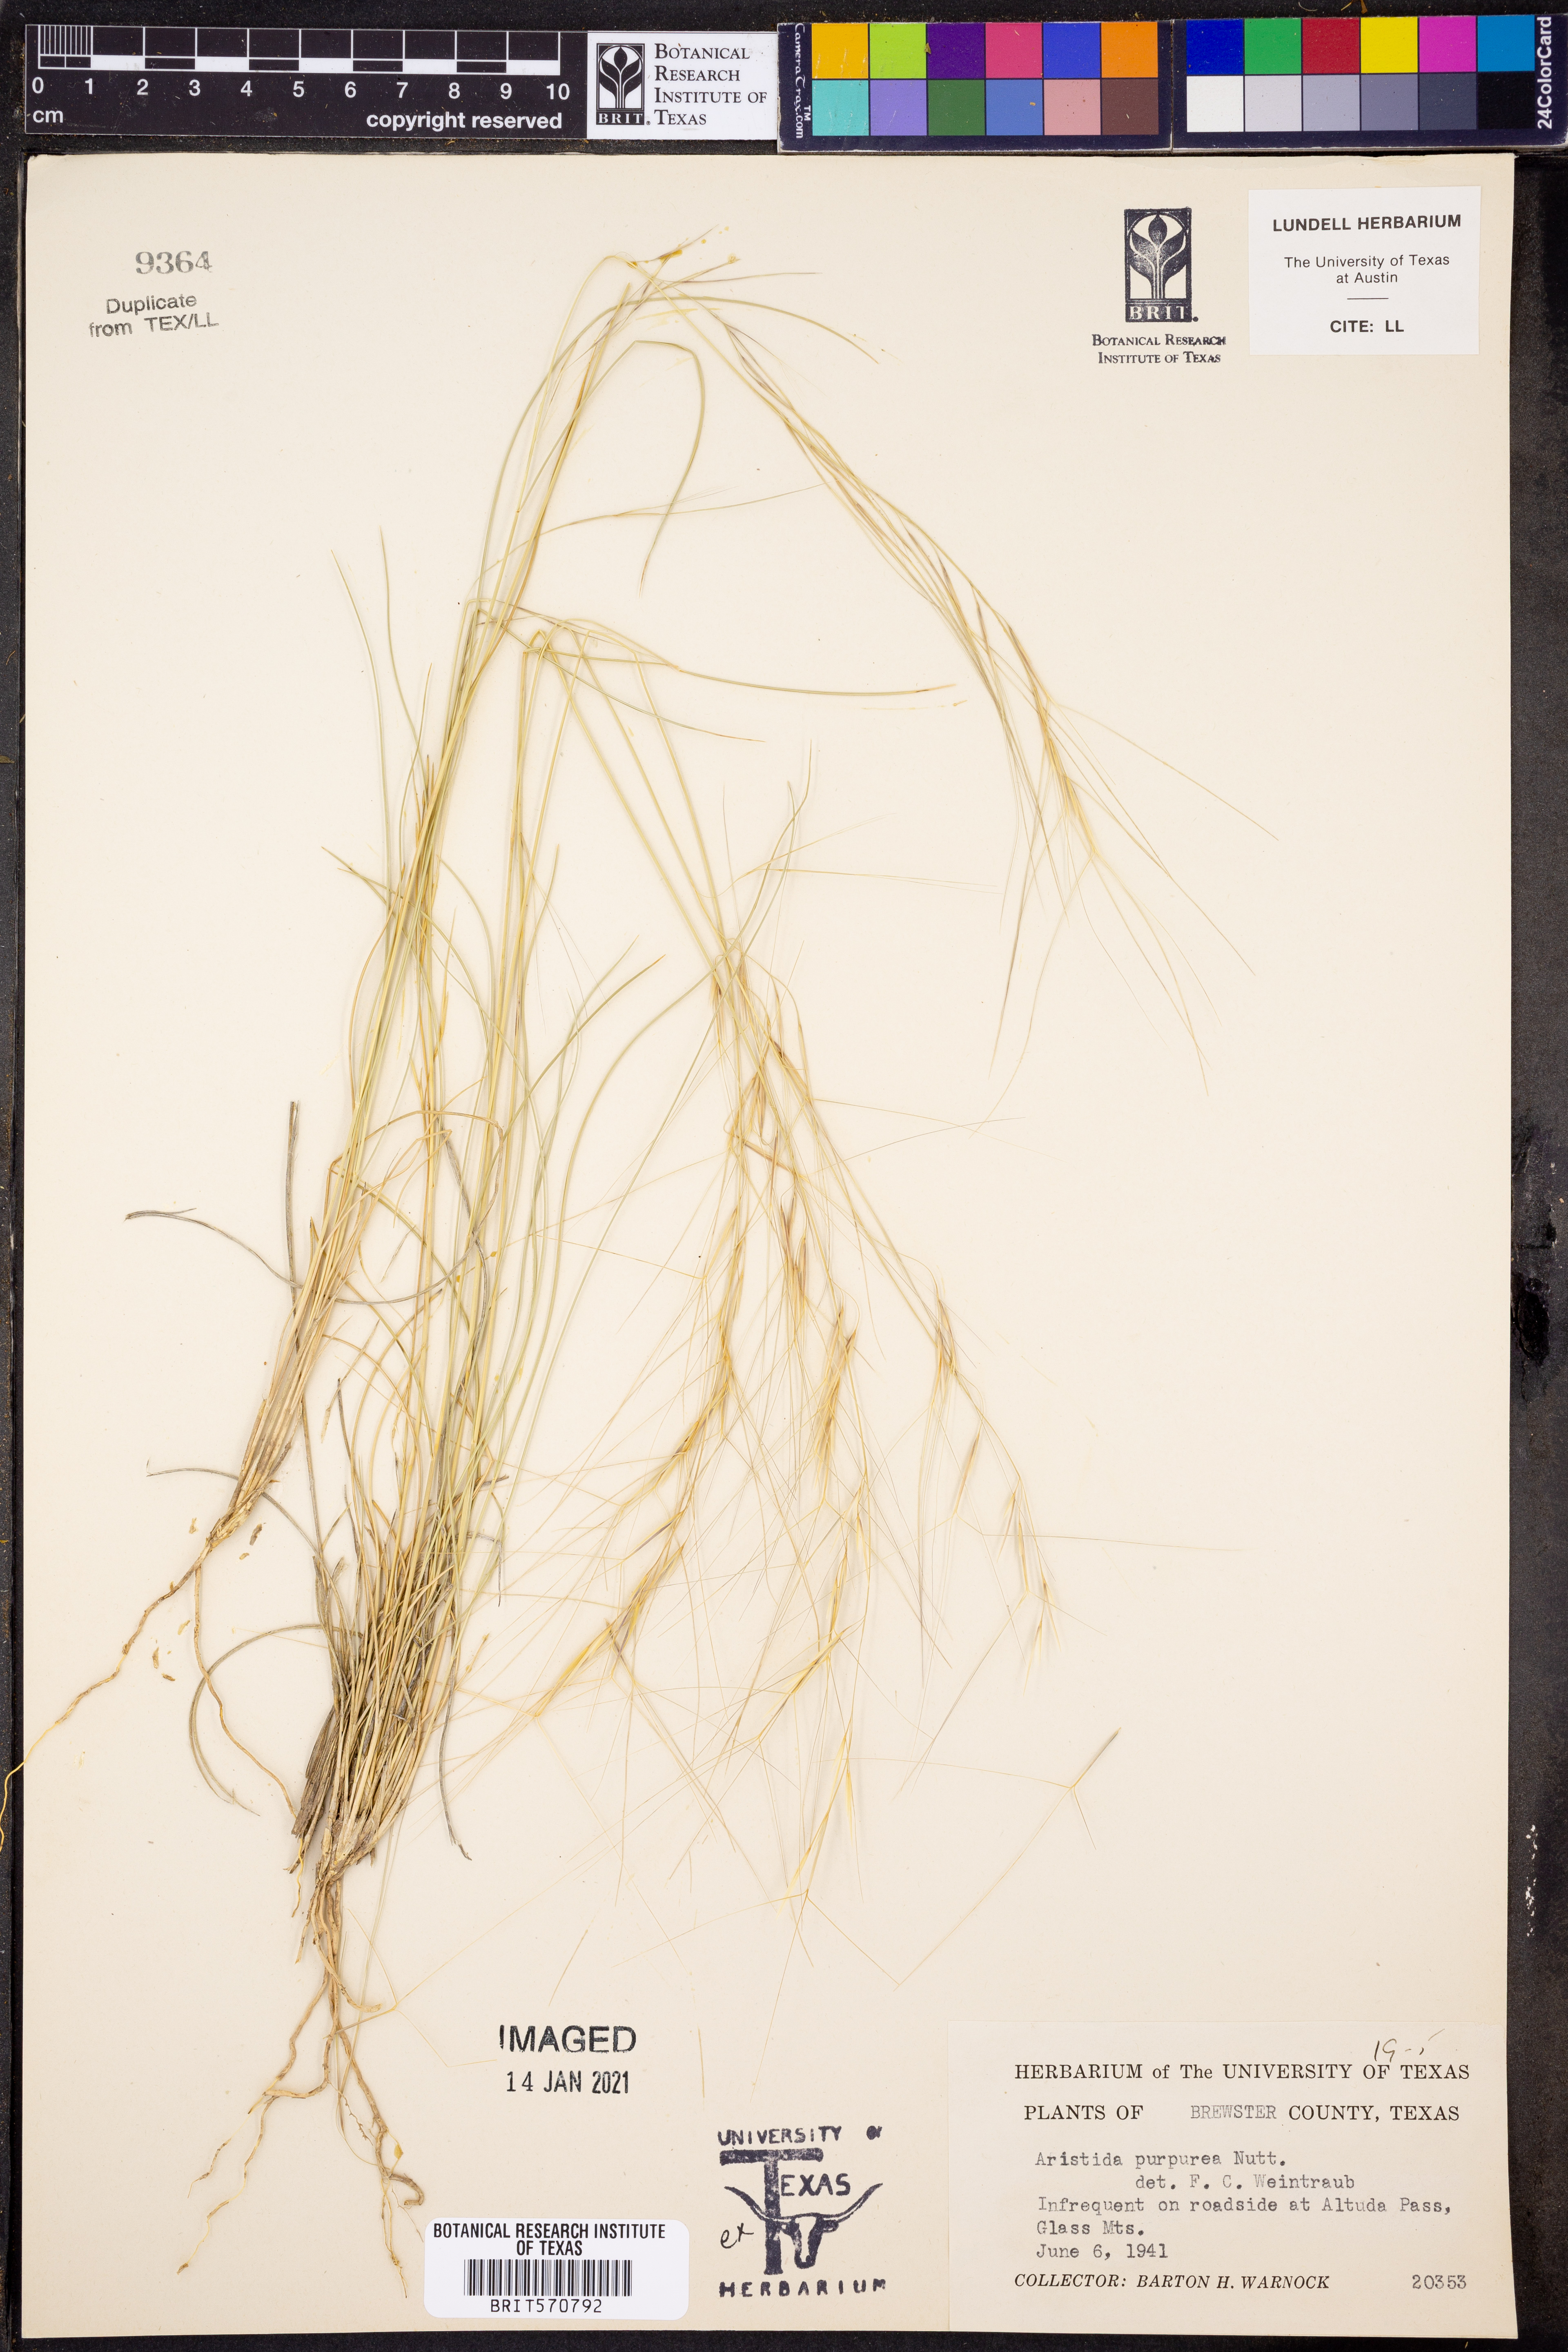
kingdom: Plantae
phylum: Tracheophyta
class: Liliopsida
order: Poales
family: Poaceae
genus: Aristida
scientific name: Aristida purpurea
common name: Purple threeawn
